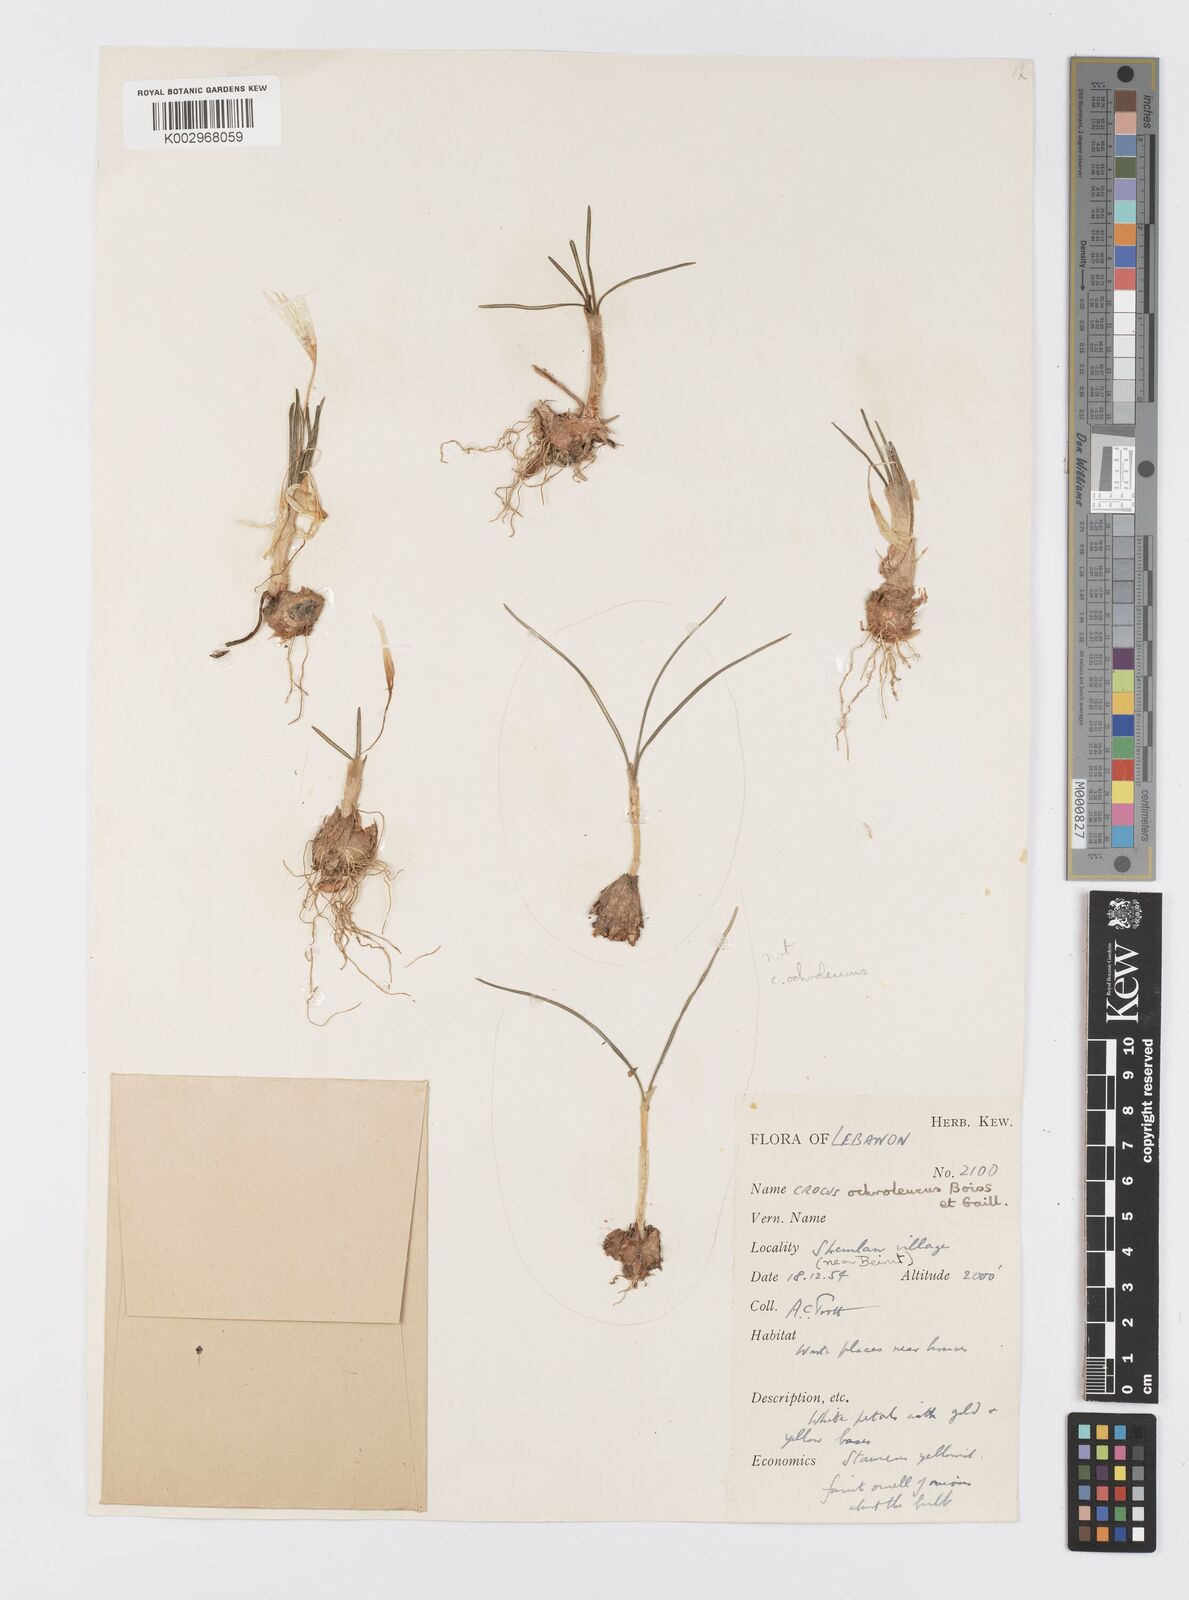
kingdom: Plantae
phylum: Tracheophyta
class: Liliopsida
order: Asparagales
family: Iridaceae
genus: Crocus
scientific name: Crocus ochroleucus
